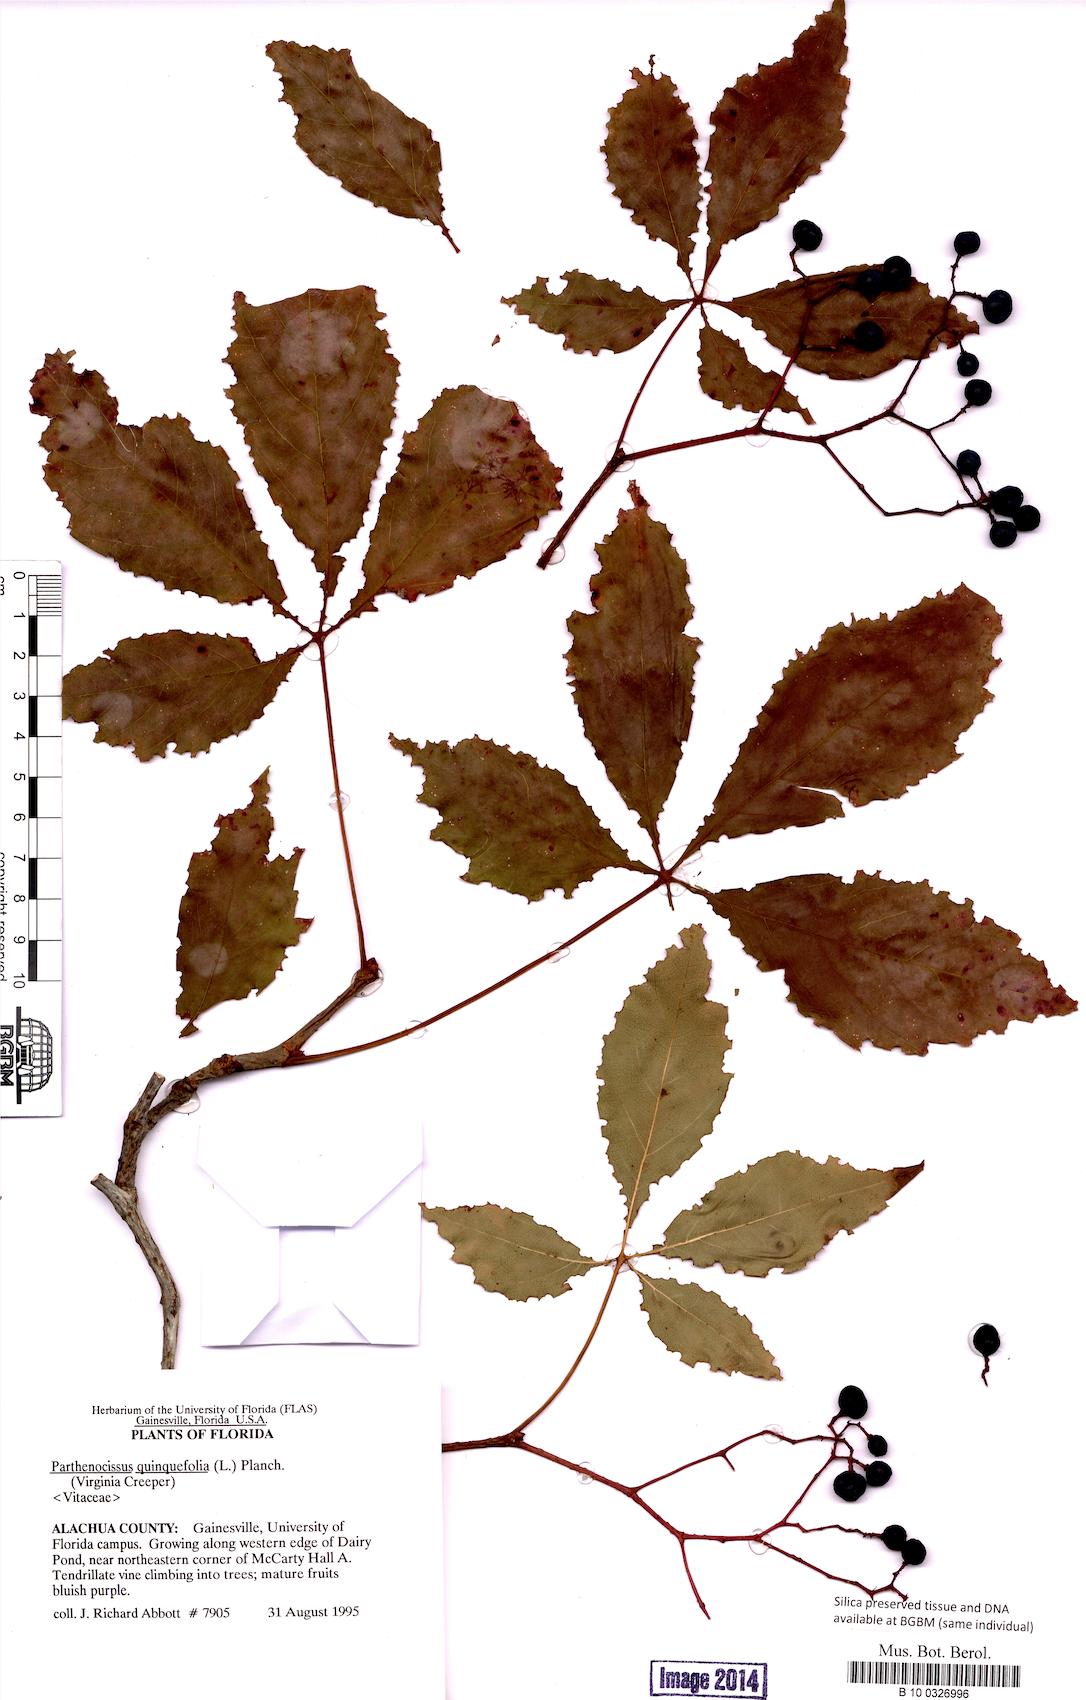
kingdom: Plantae
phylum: Tracheophyta
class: Magnoliopsida
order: Vitales
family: Vitaceae
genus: Parthenocissus
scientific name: Parthenocissus quinquefolia
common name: Virginia-creeper
